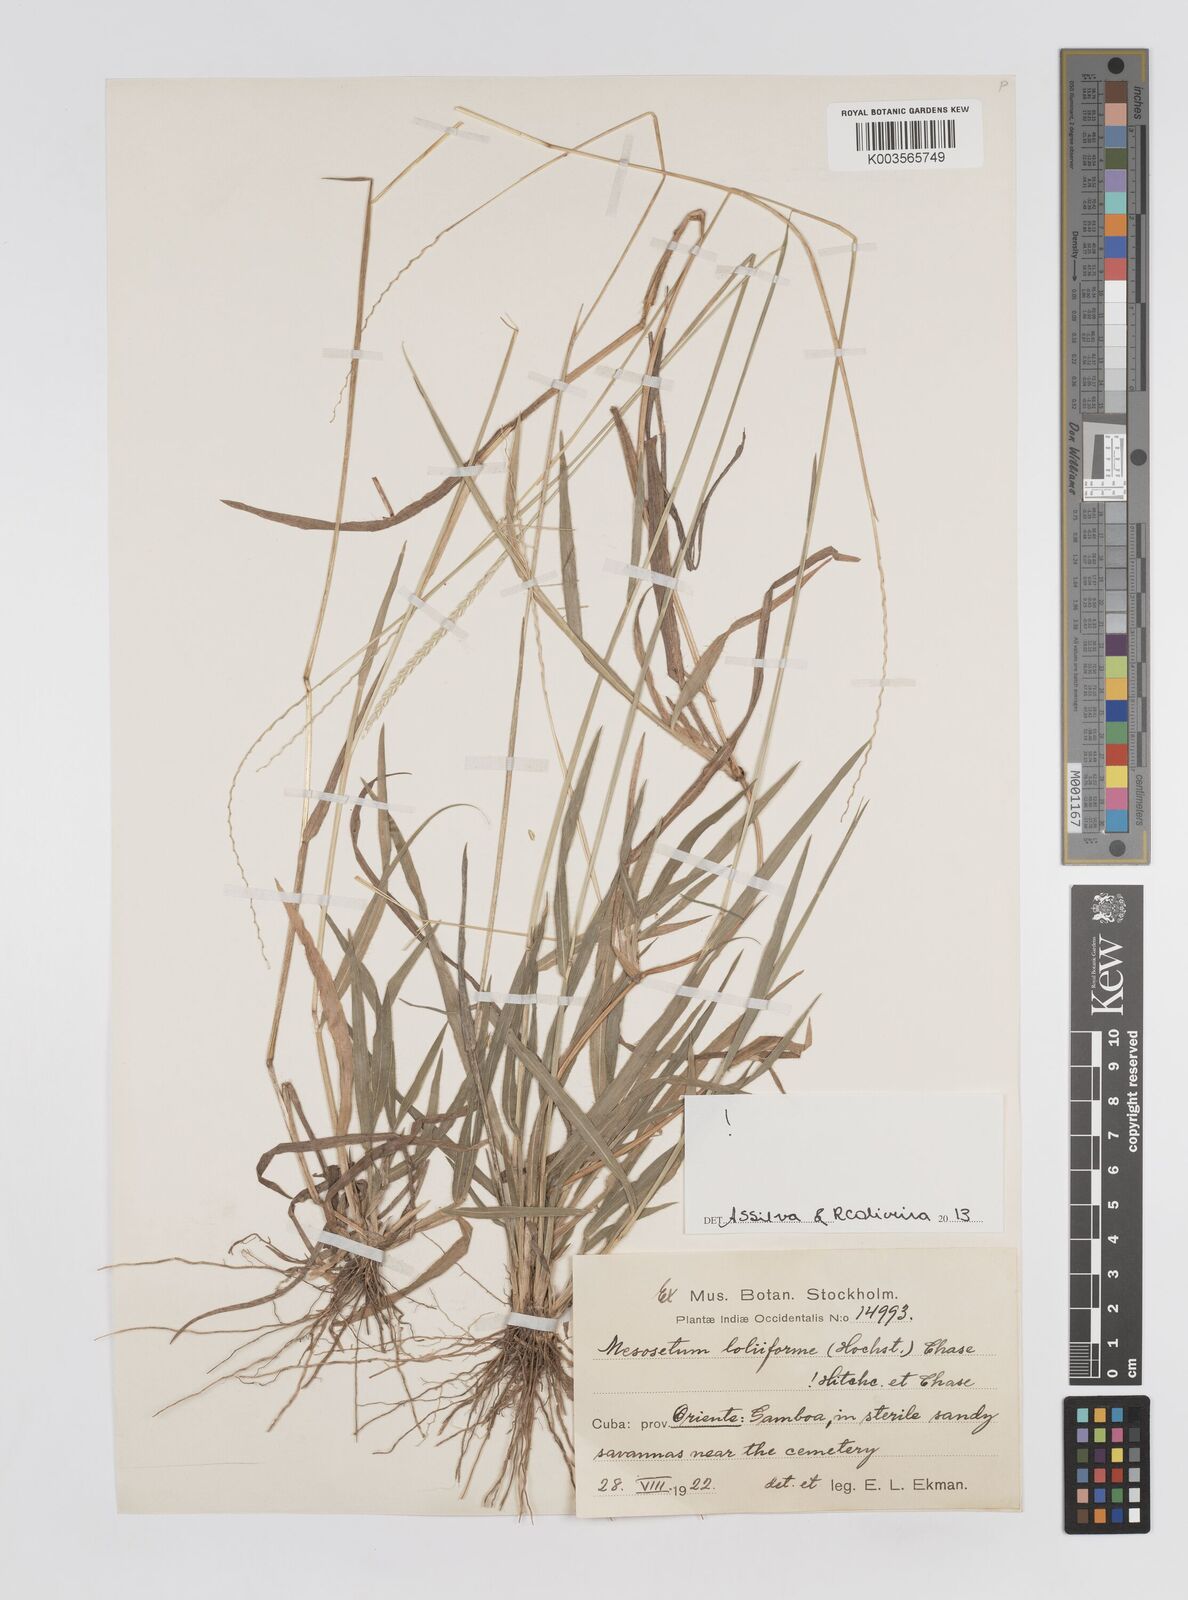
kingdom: Plantae
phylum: Tracheophyta
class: Liliopsida
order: Poales
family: Poaceae
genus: Mesosetum
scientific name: Mesosetum loliiforme
